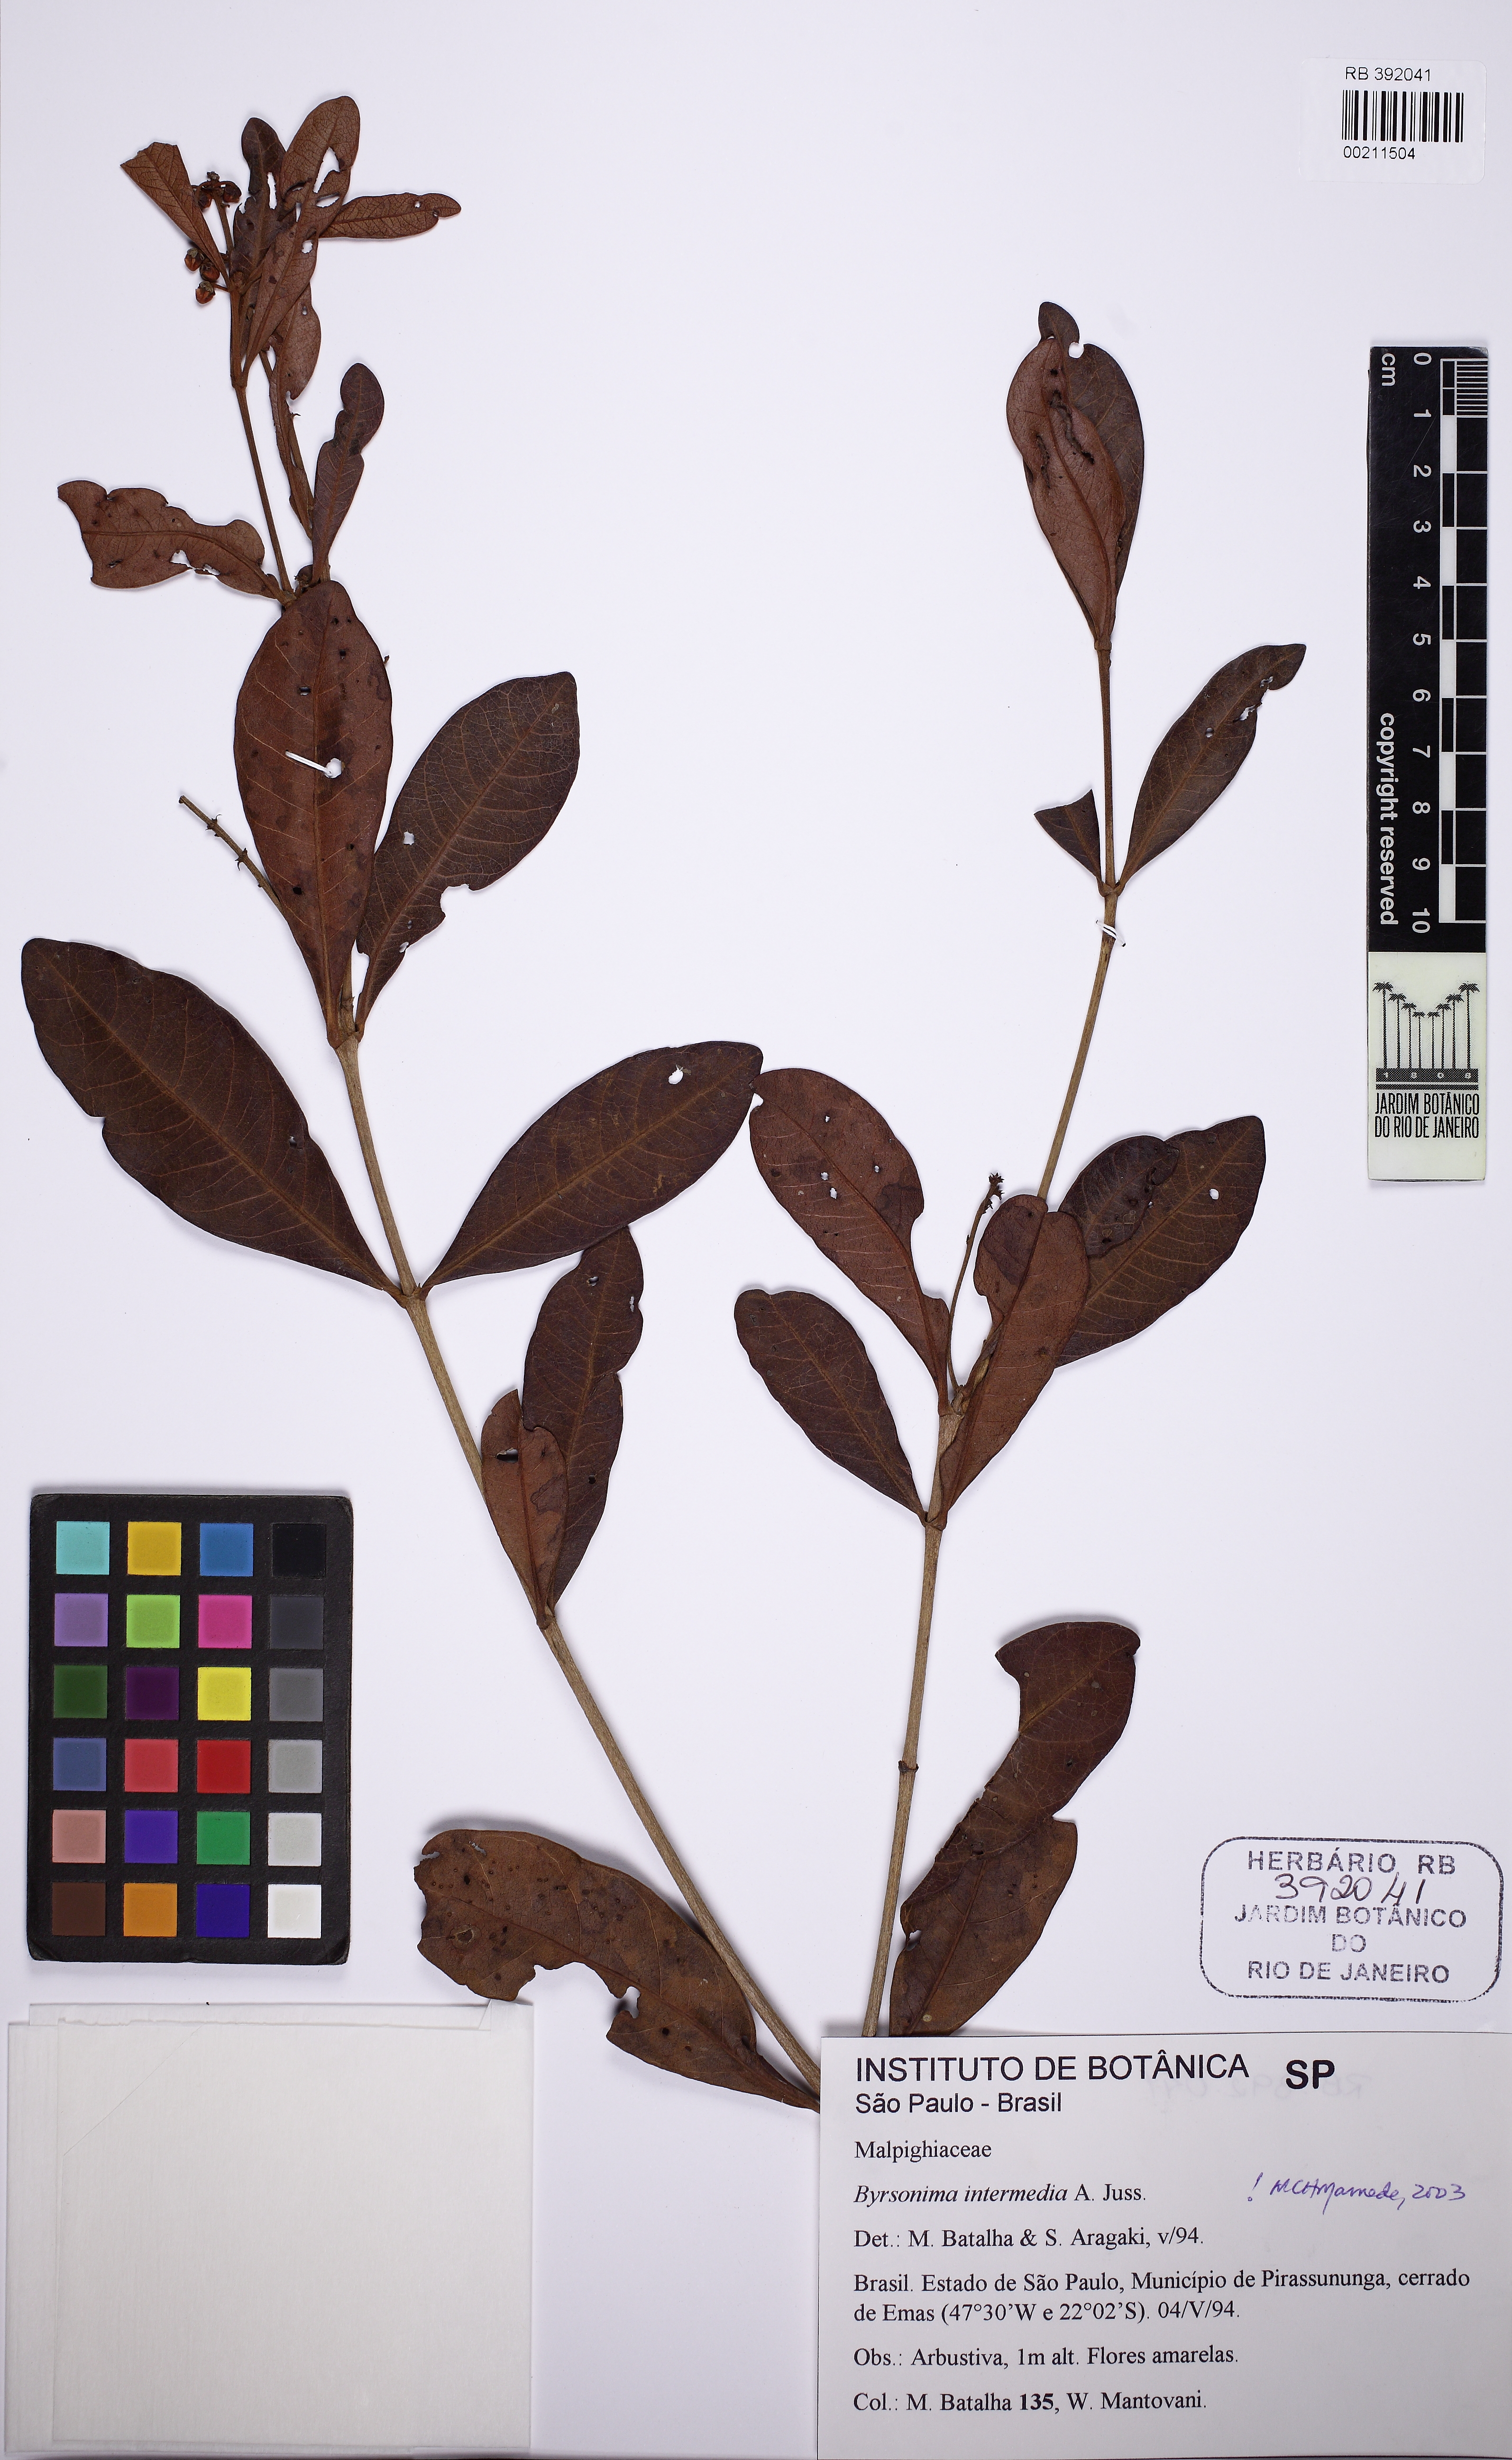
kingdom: Plantae
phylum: Tracheophyta
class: Magnoliopsida
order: Malpighiales
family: Malpighiaceae
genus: Byrsonima
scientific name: Byrsonima intermedia
